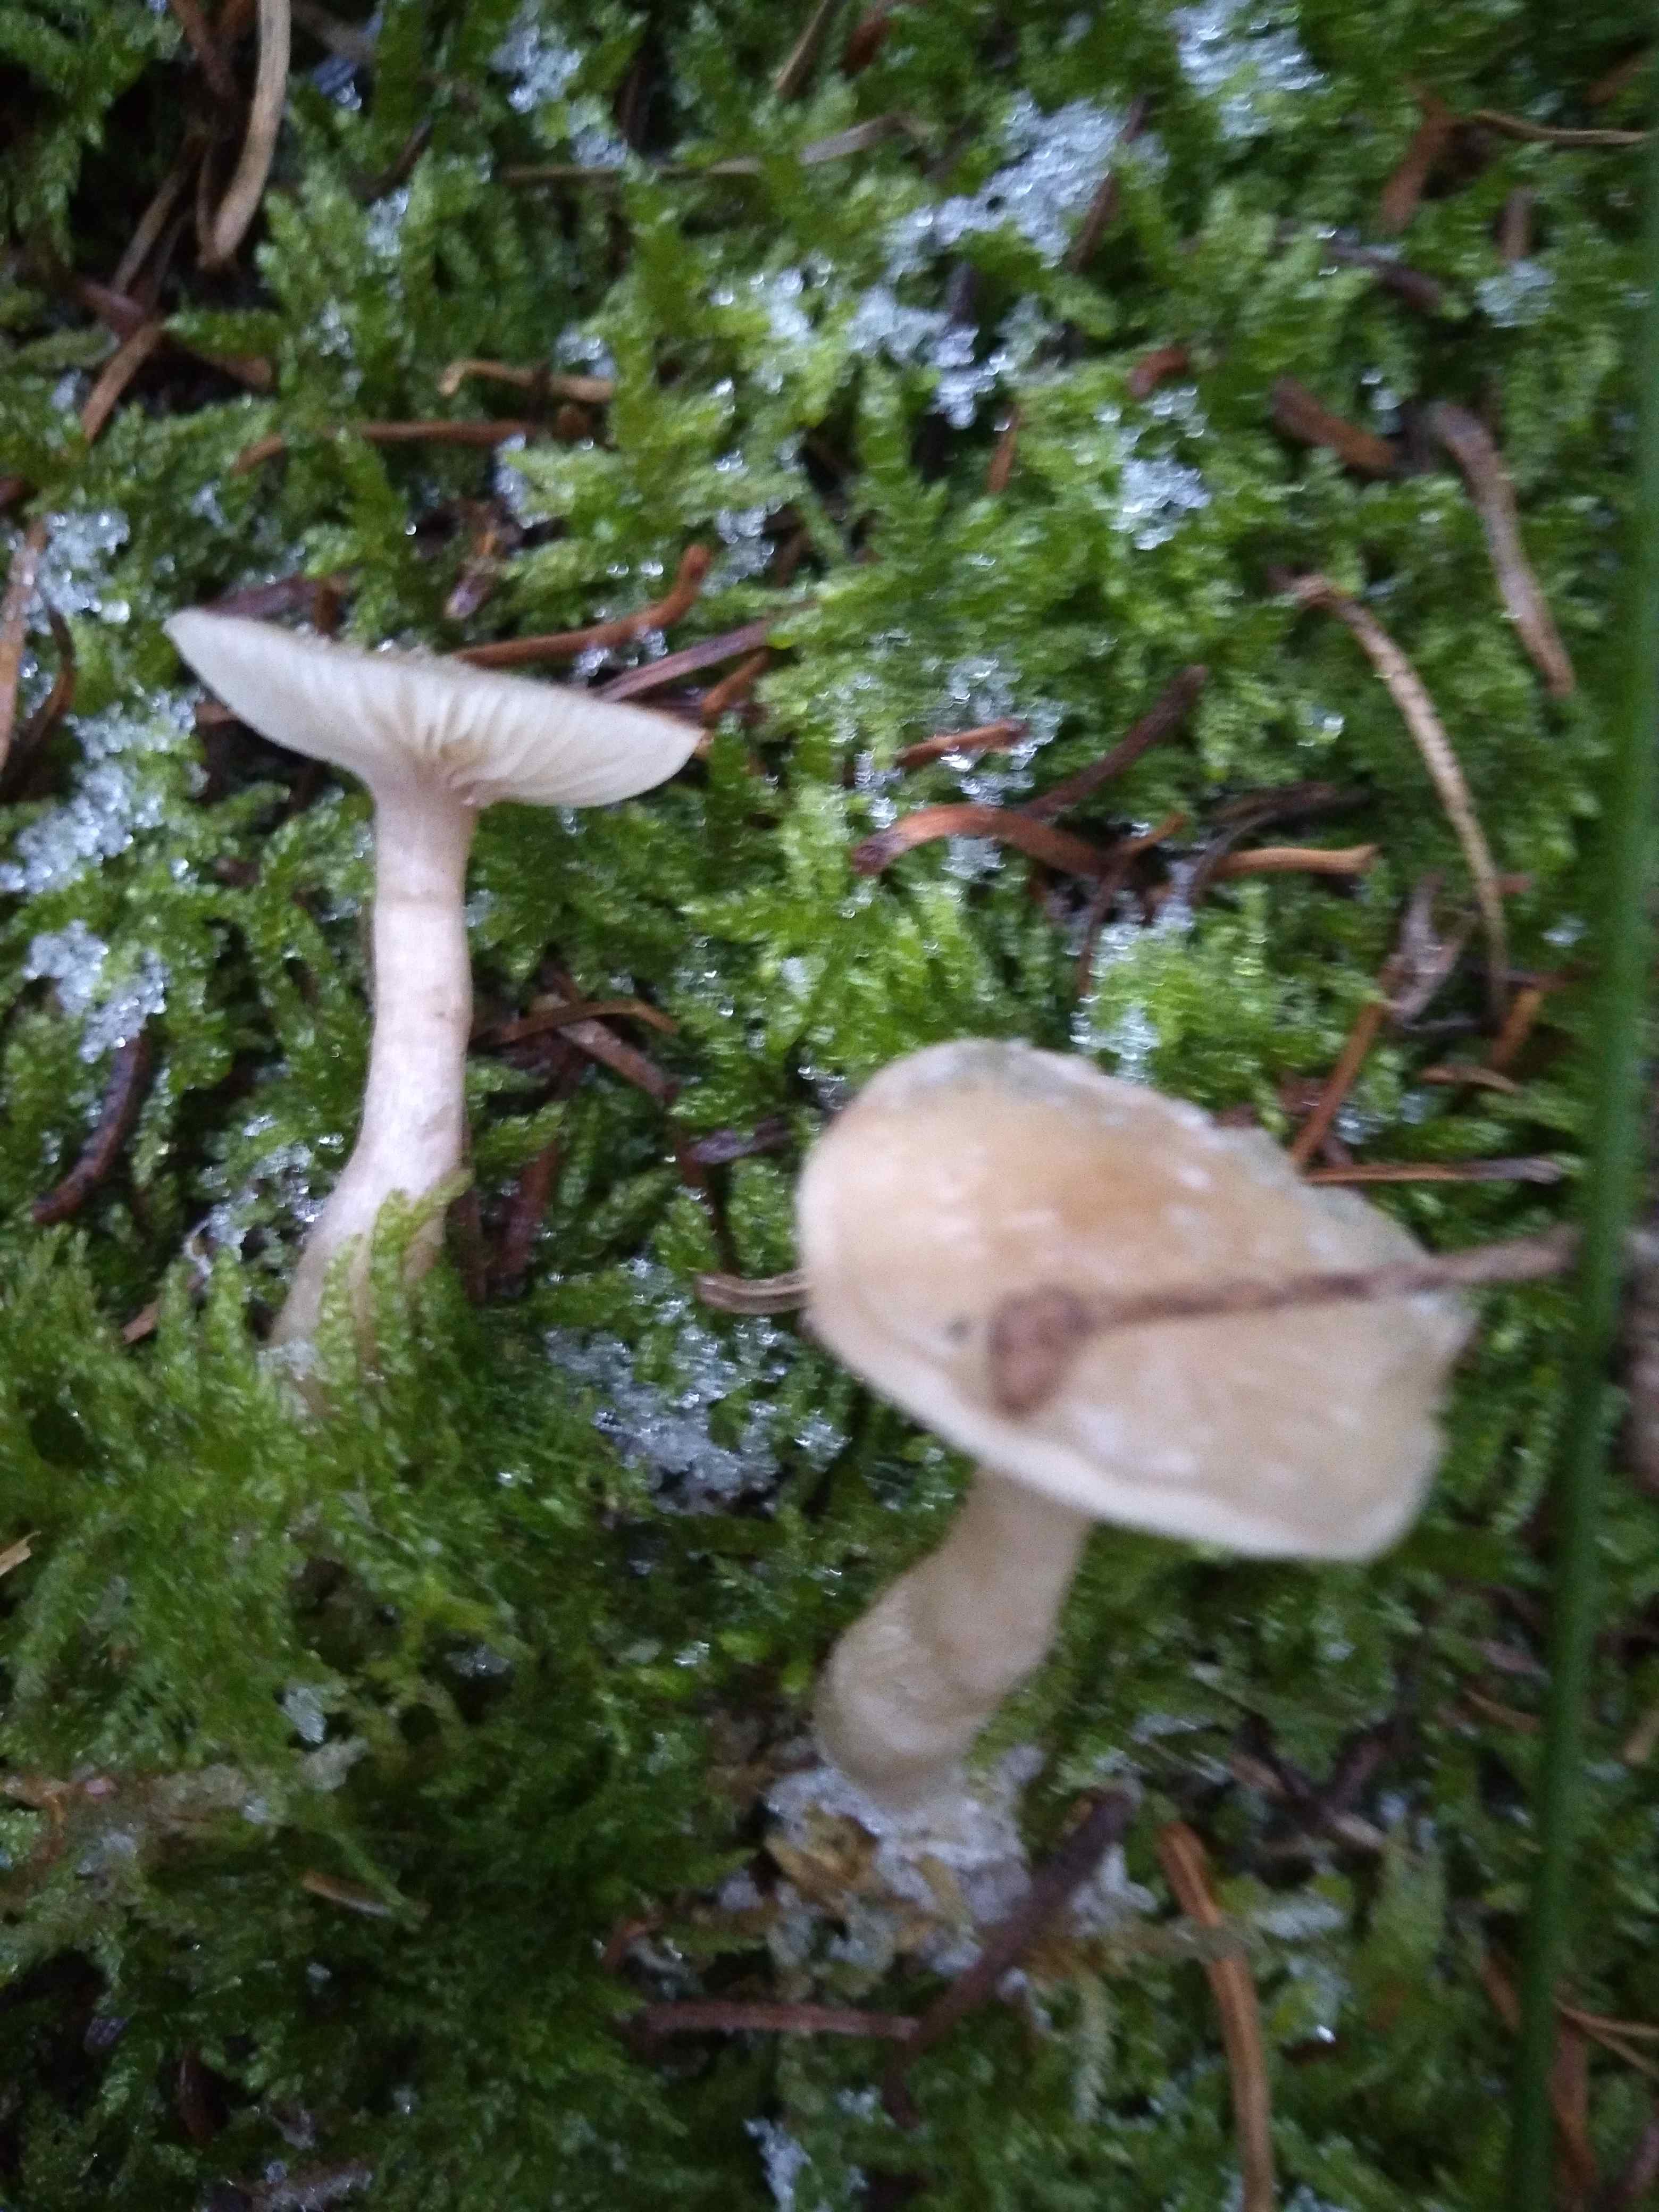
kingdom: Fungi
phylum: Basidiomycota
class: Agaricomycetes
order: Agaricales
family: Tricholomataceae
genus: Clitocybe
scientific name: Clitocybe fragrans
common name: vellugtende tragthat
